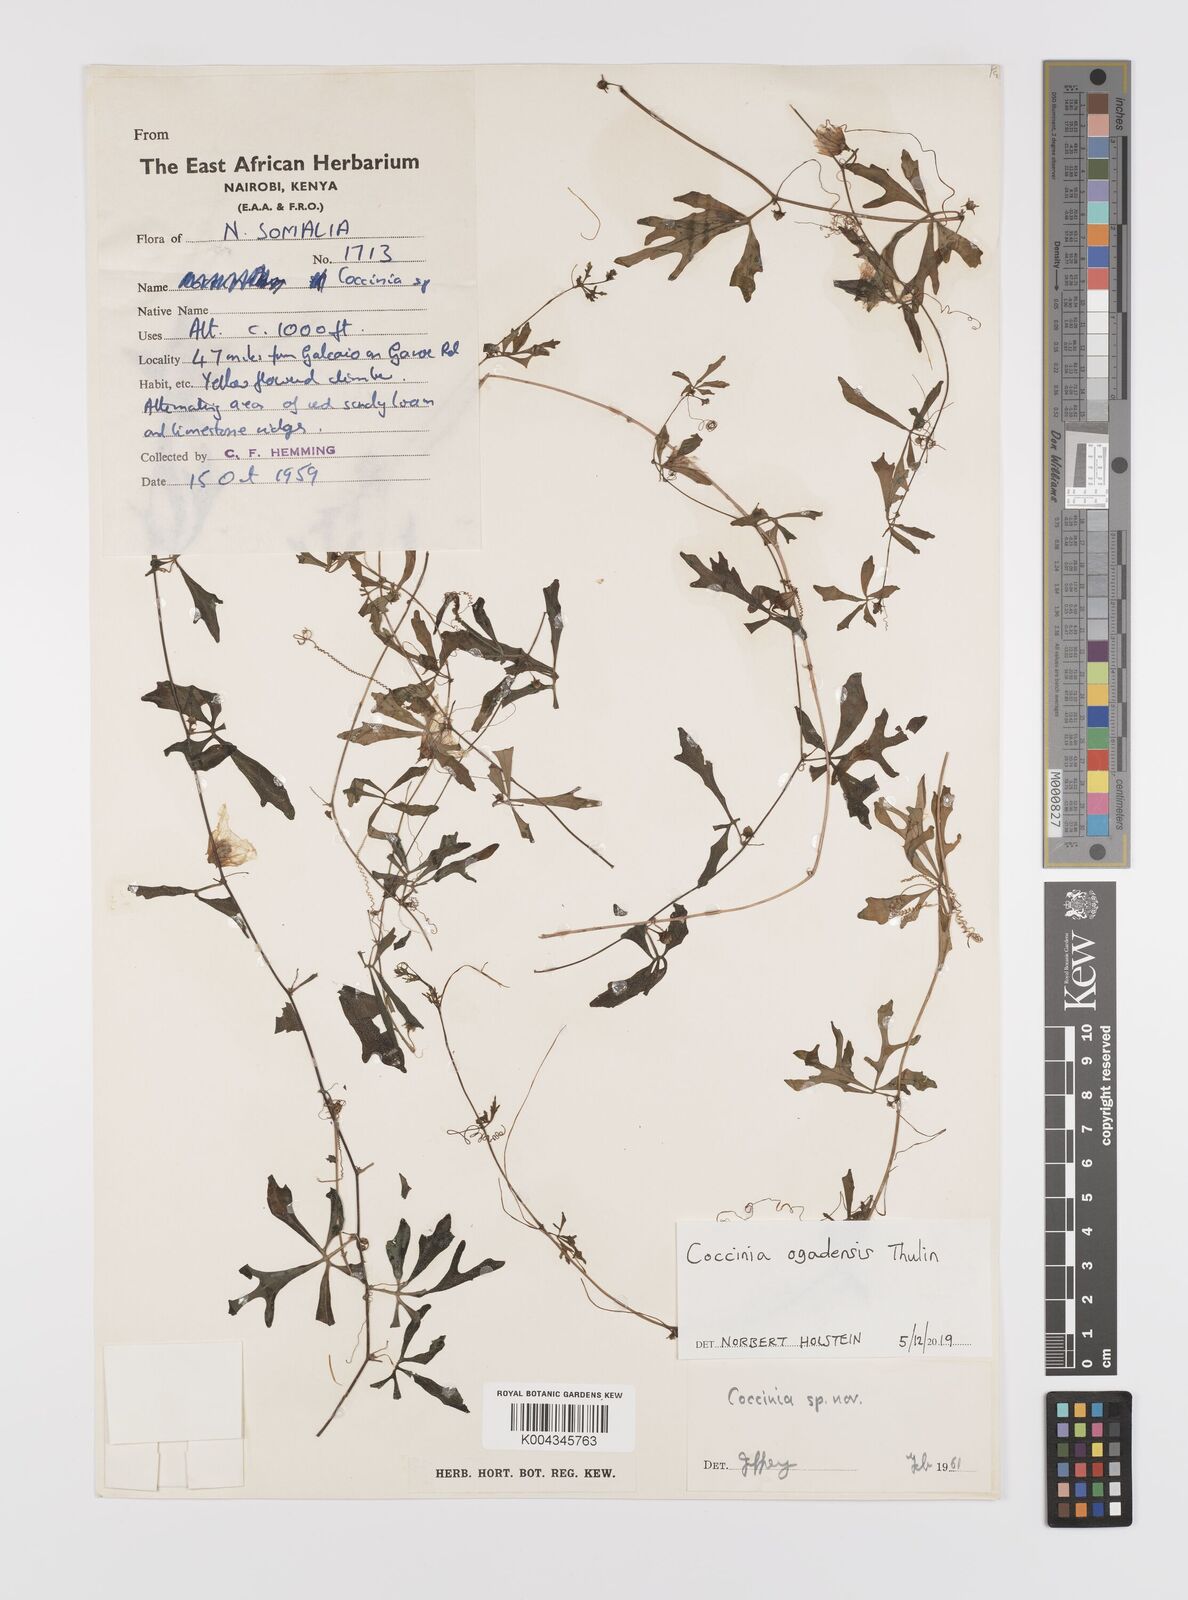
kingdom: Plantae
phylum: Tracheophyta
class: Magnoliopsida
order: Cucurbitales
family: Cucurbitaceae
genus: Coccinia
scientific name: Coccinia ogadensis
